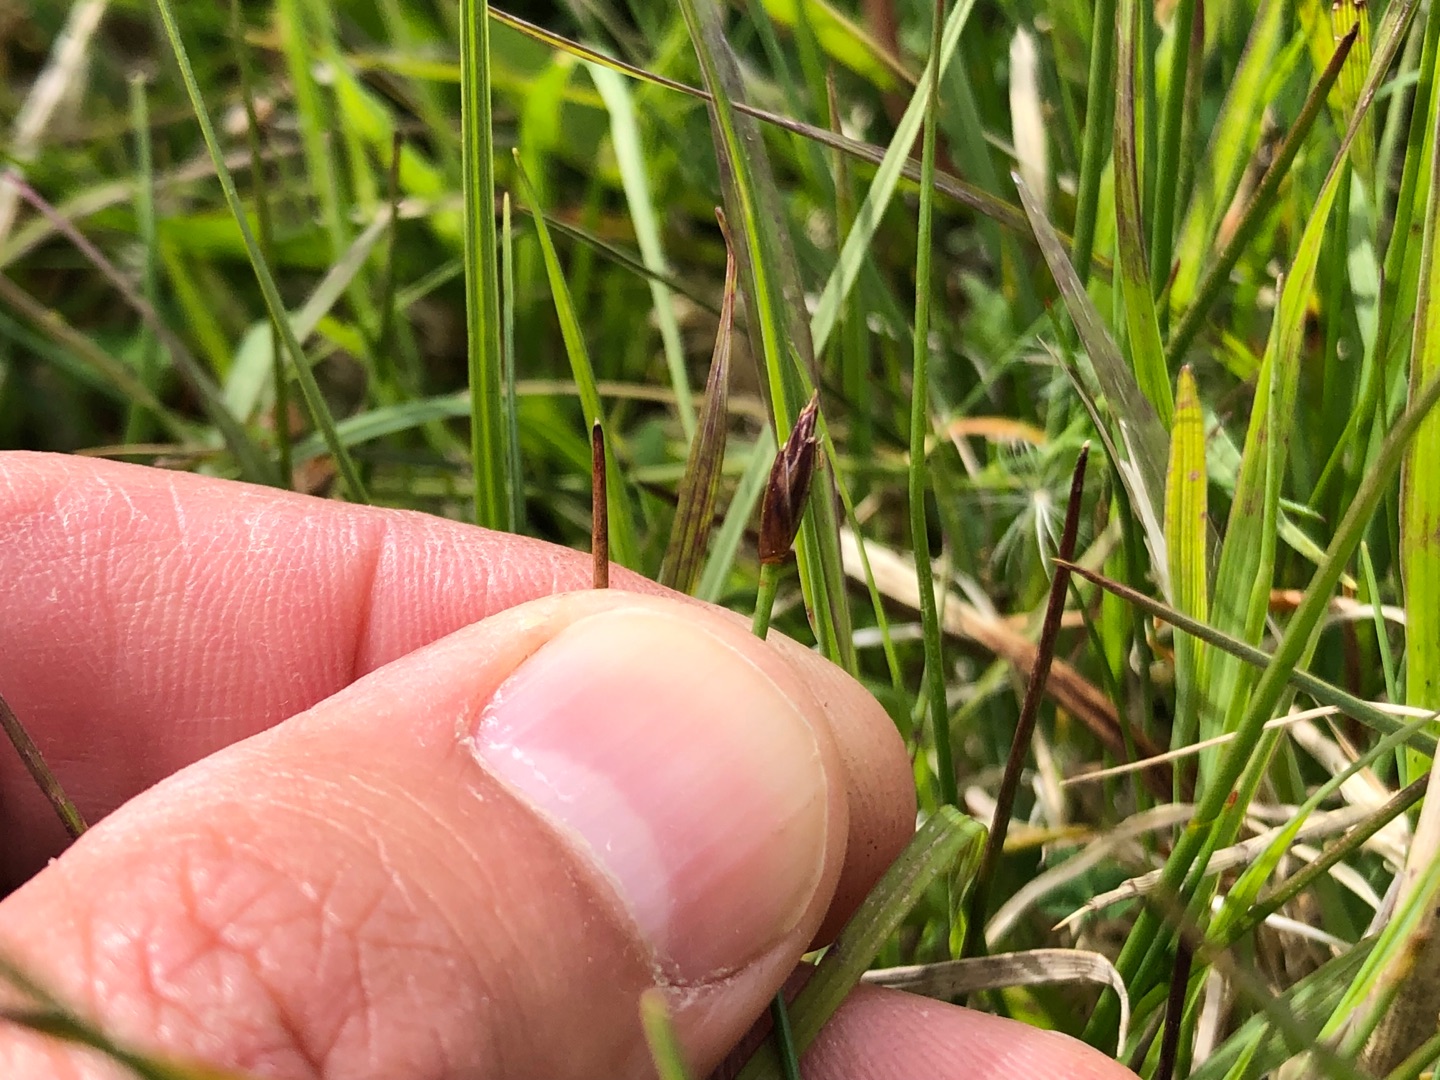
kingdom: Plantae
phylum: Tracheophyta
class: Liliopsida
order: Poales
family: Cyperaceae
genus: Eleocharis
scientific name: Eleocharis quinqueflora
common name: Fåblomstret kogleaks
